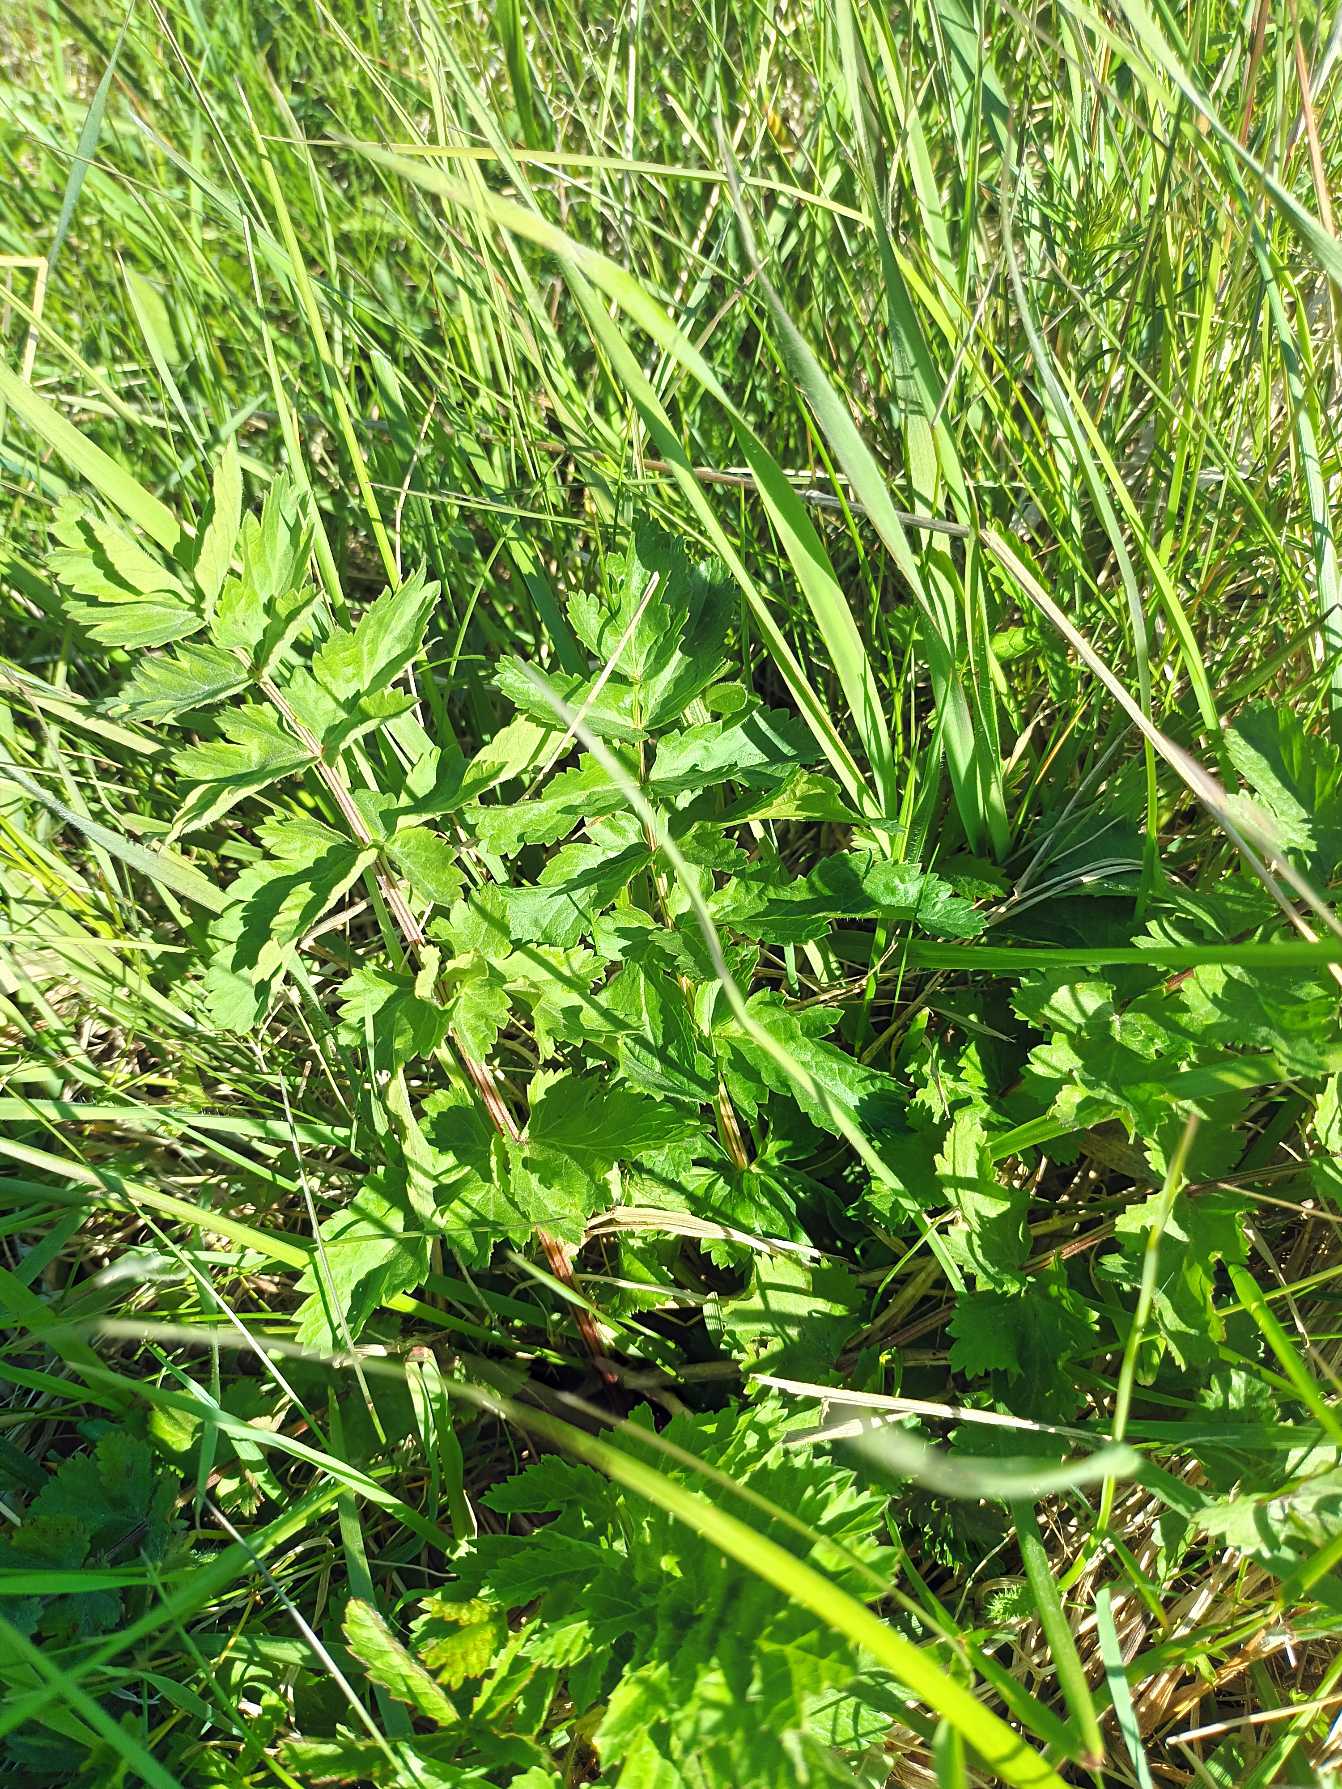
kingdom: Plantae
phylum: Tracheophyta
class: Magnoliopsida
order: Apiales
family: Apiaceae
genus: Pastinaca
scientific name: Pastinaca sativa
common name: Pastinak
